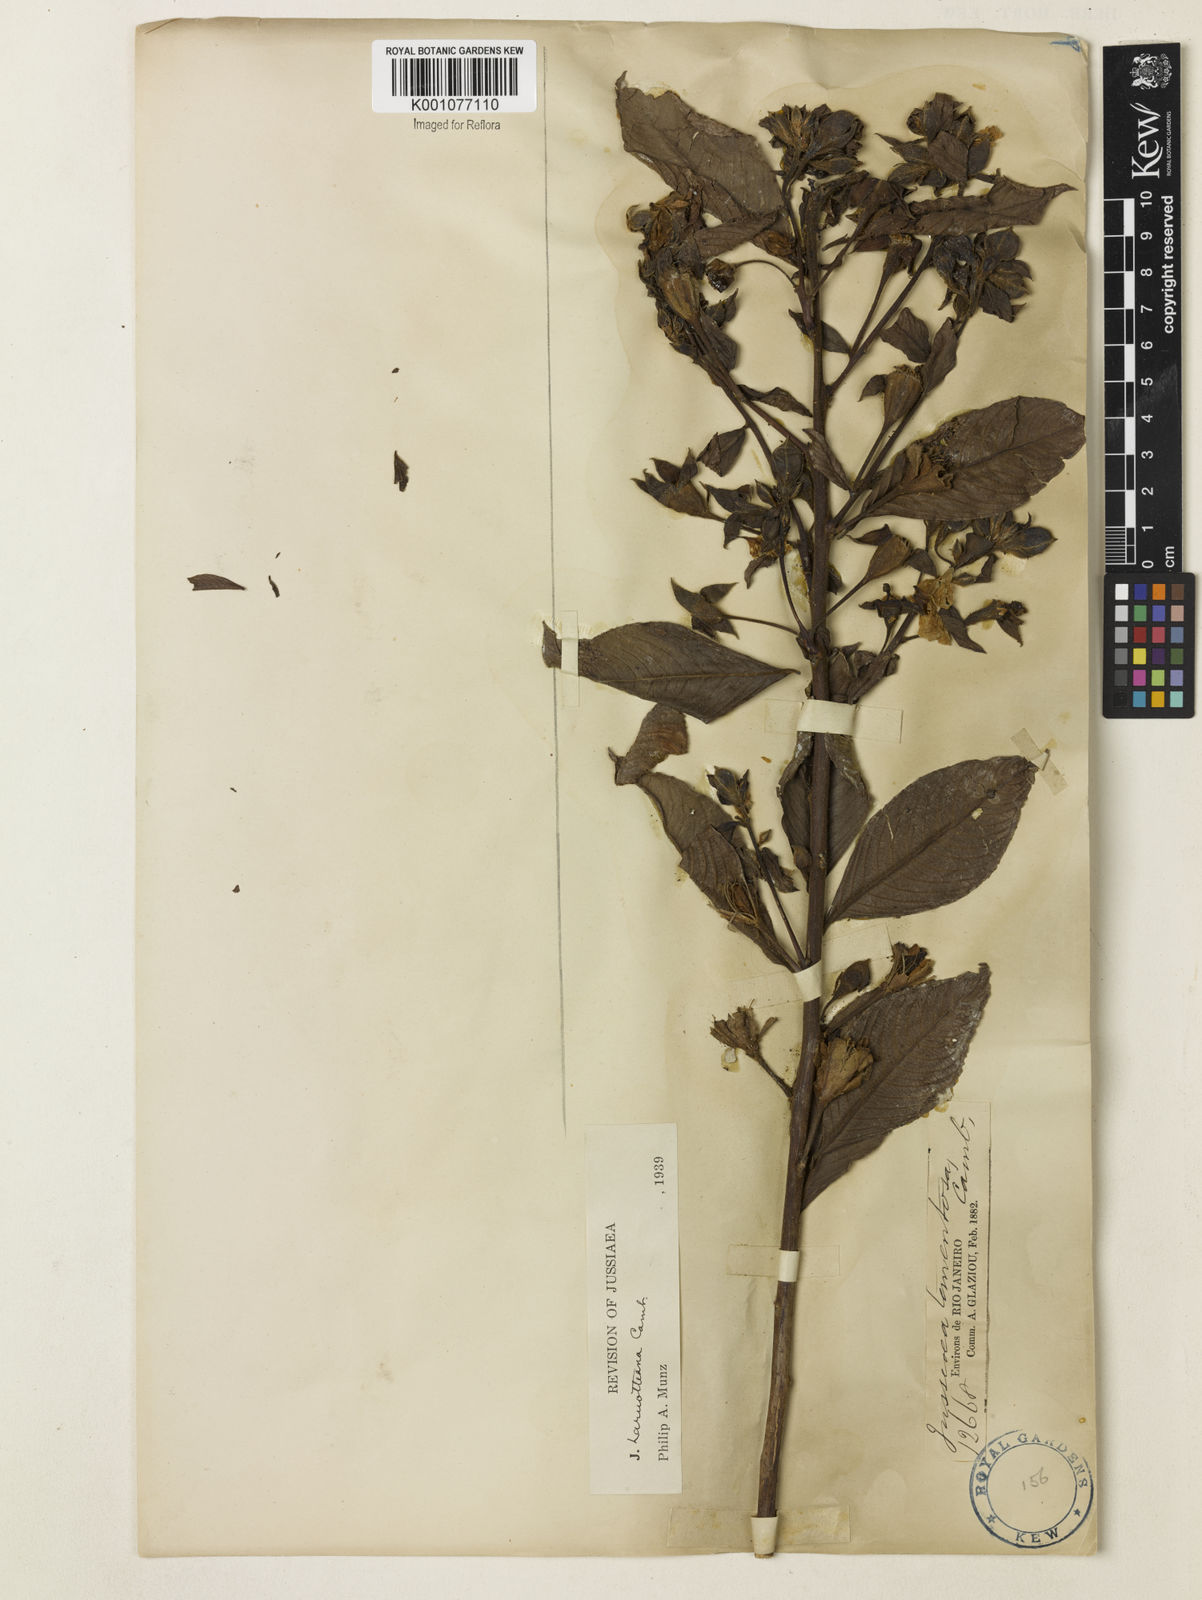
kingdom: Plantae
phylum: Tracheophyta
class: Magnoliopsida
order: Myrtales
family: Onagraceae
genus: Ludwigia
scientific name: Ludwigia laruotteana
